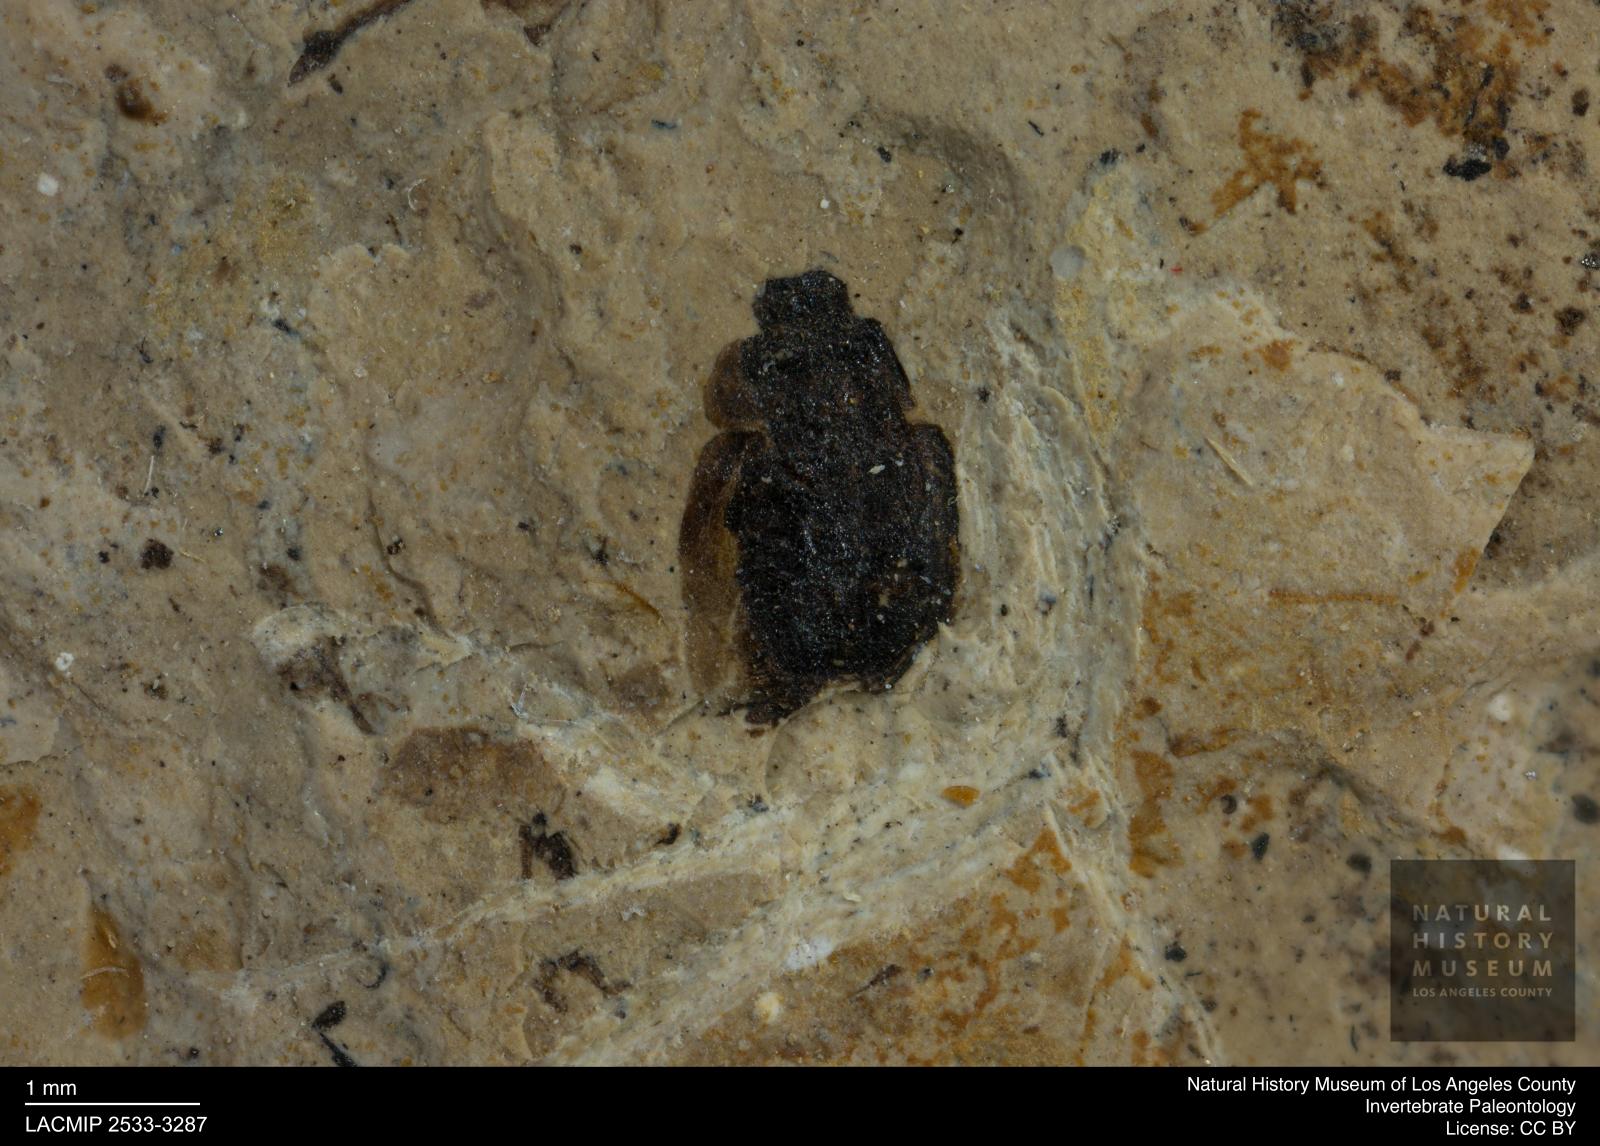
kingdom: Animalia
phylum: Arthropoda
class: Insecta
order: Coleoptera
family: Hydrophilidae
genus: Paracymus
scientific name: Paracymus excitatus
